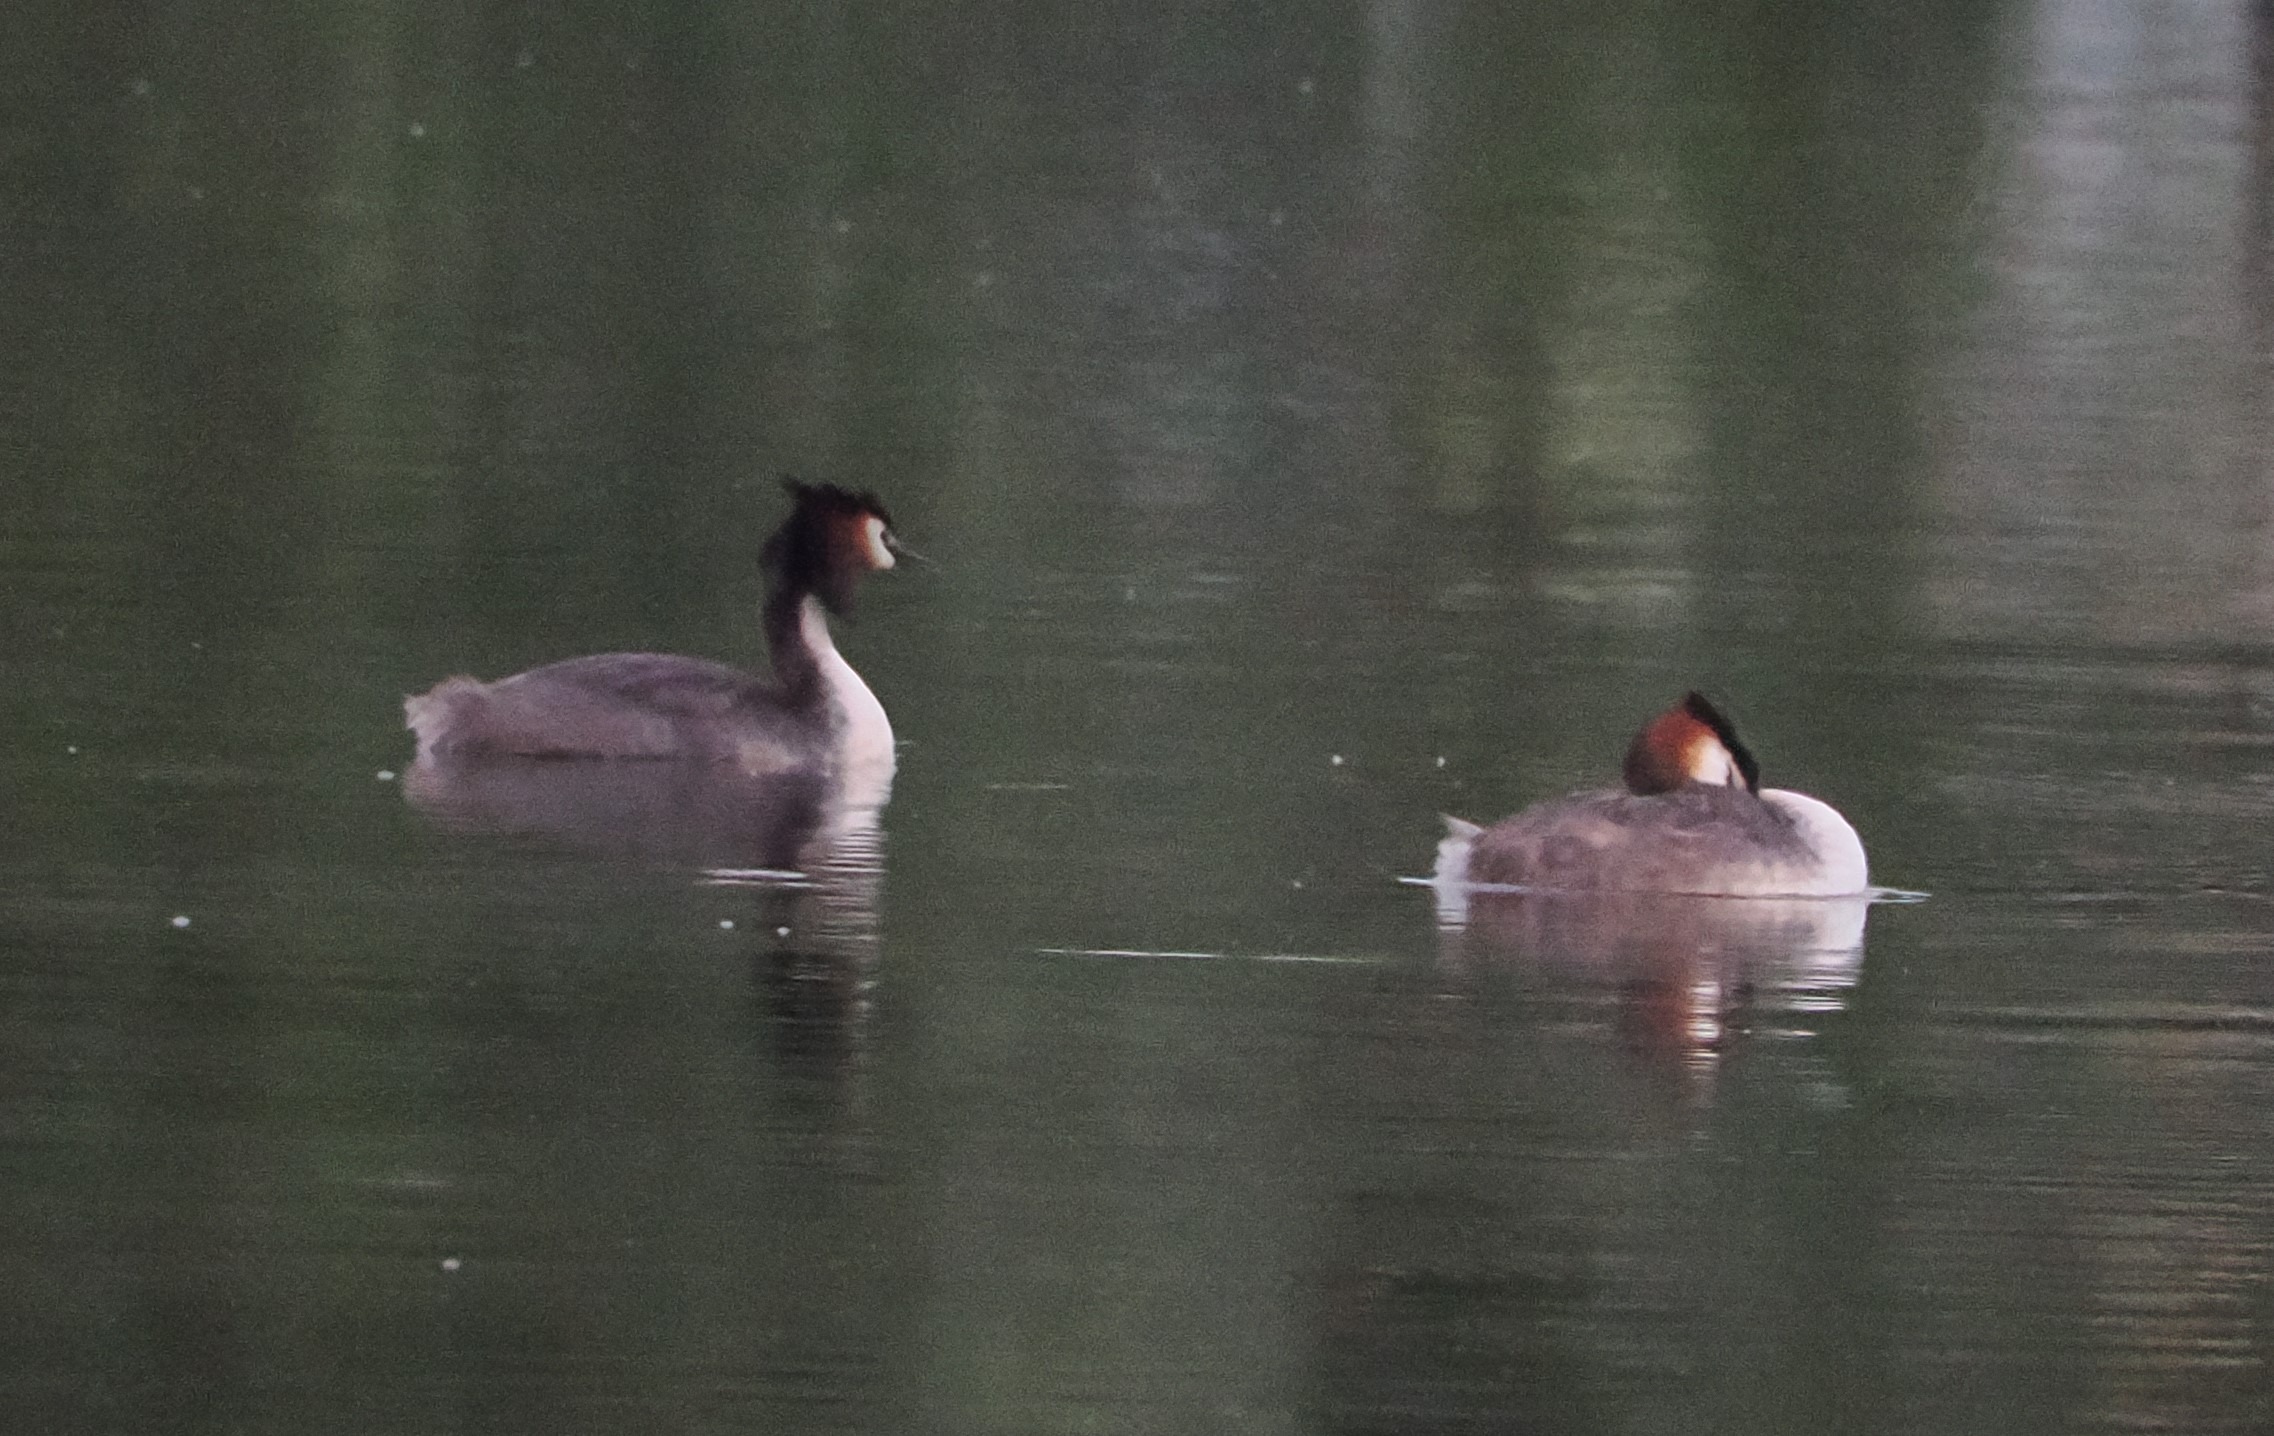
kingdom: Animalia
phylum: Chordata
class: Aves
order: Podicipediformes
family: Podicipedidae
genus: Podiceps
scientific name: Podiceps cristatus
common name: Toppet lappedykker
